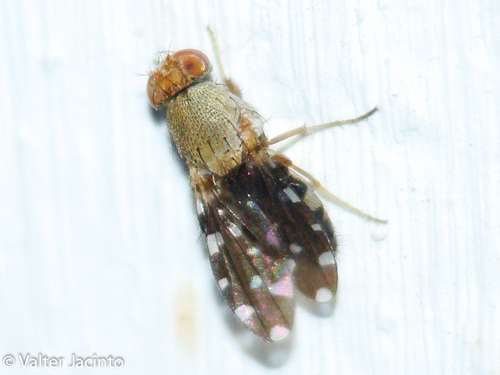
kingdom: Animalia
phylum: Arthropoda
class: Insecta
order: Diptera
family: Ephydridae
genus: Actocetor
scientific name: Actocetor indicus
